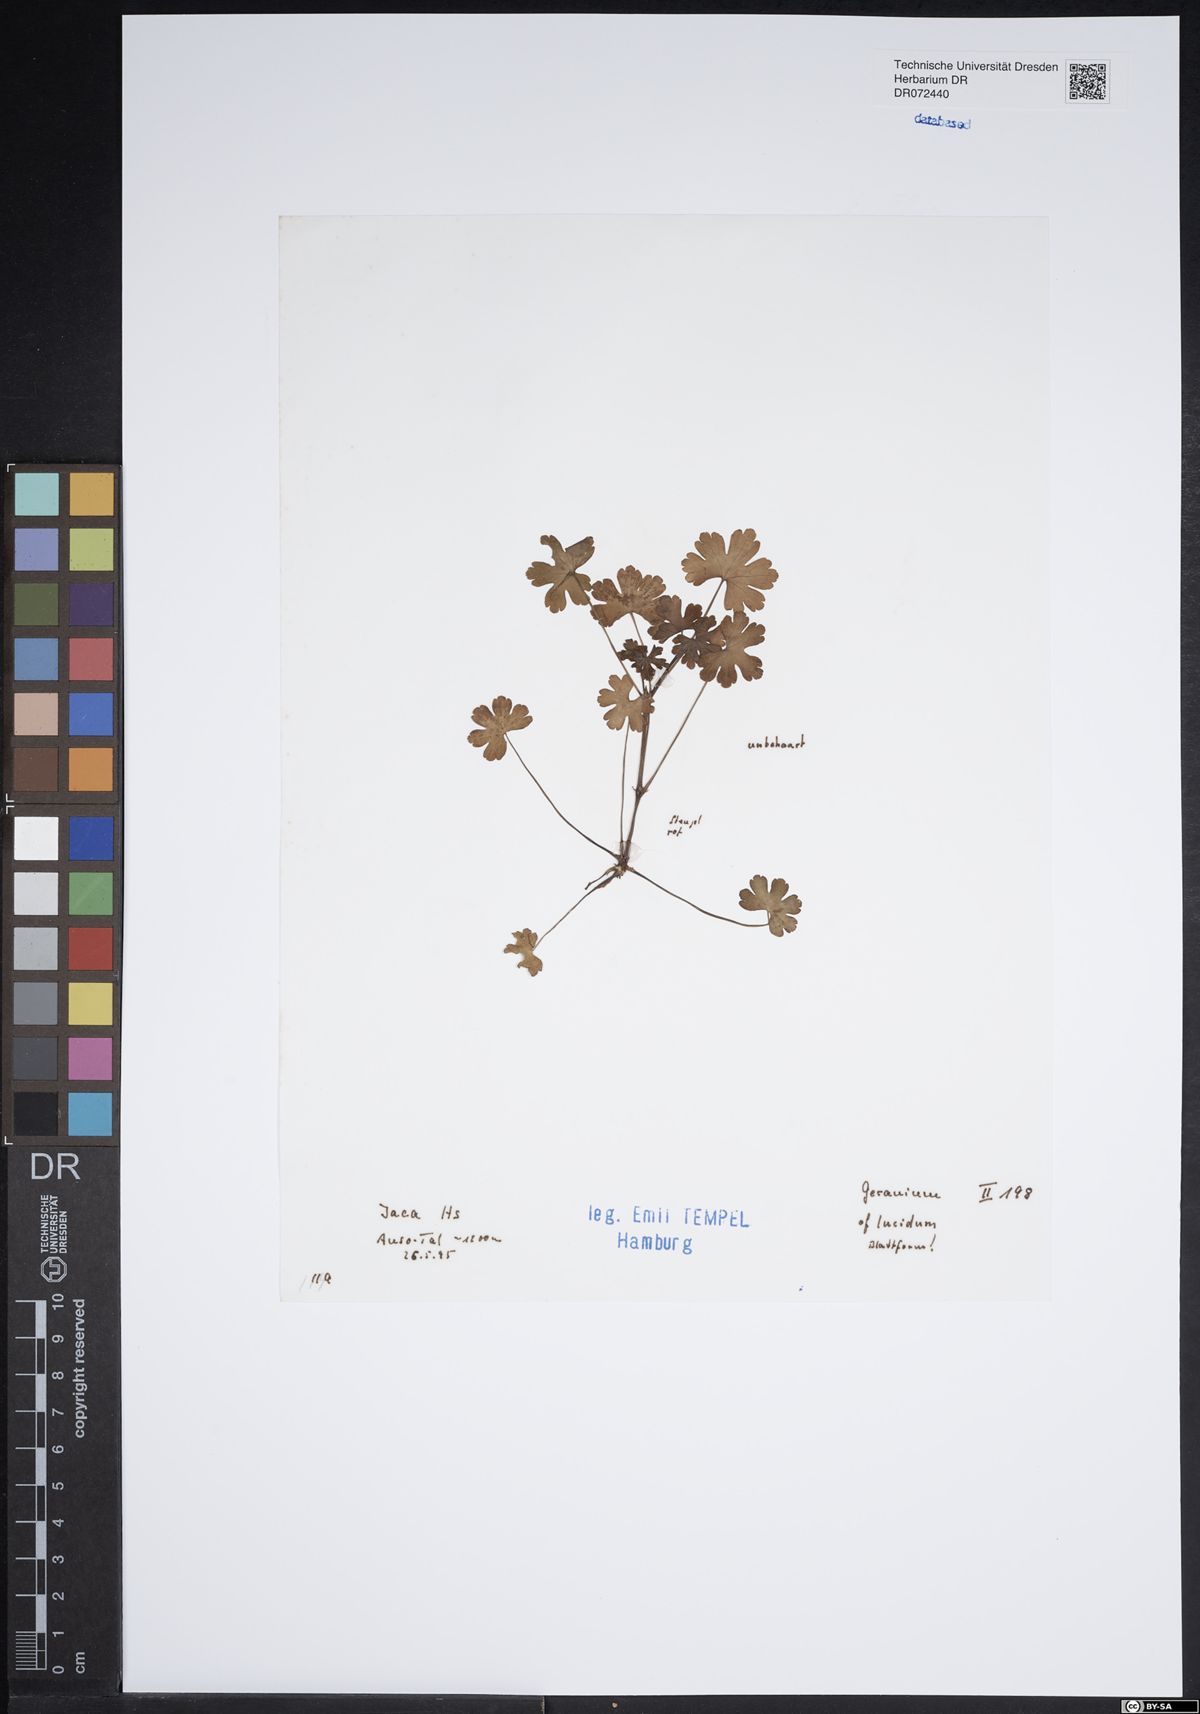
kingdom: Plantae
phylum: Tracheophyta
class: Magnoliopsida
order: Geraniales
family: Geraniaceae
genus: Geranium
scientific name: Geranium lucidum
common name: Shining crane's-bill
